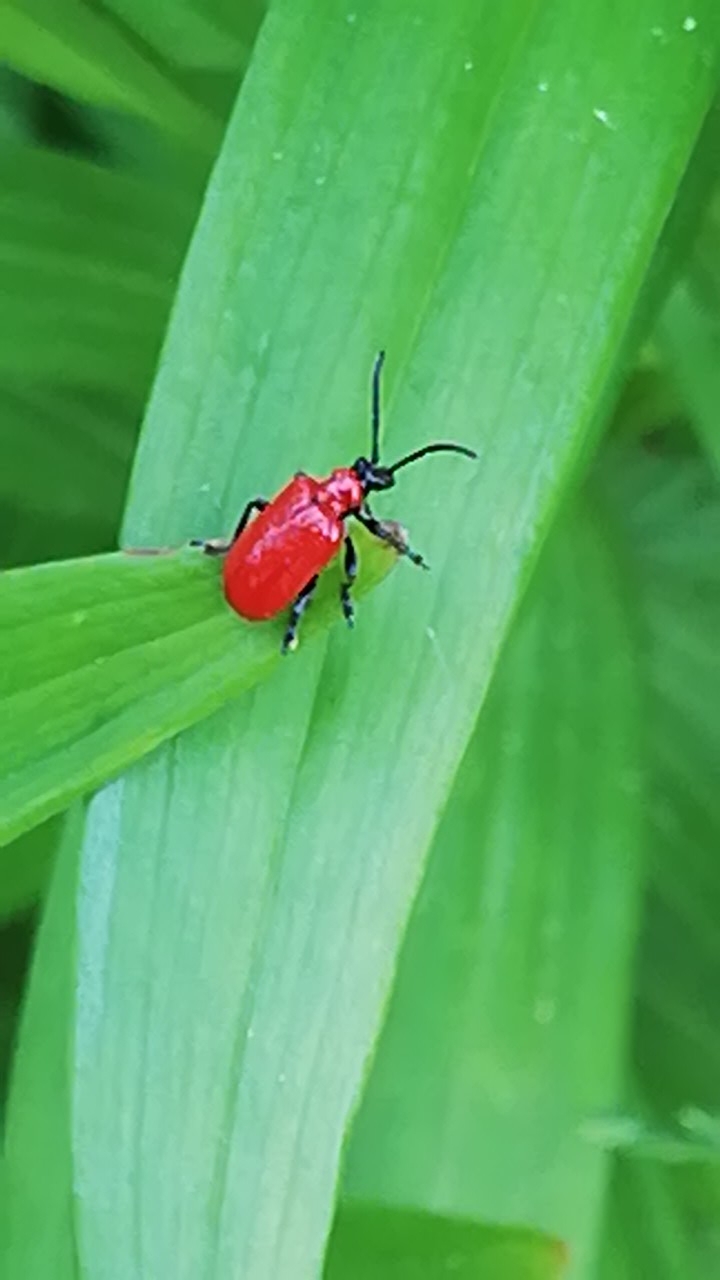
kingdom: Animalia
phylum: Arthropoda
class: Insecta
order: Coleoptera
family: Chrysomelidae
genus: Lilioceris
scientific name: Lilioceris lilii
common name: Liljebille
